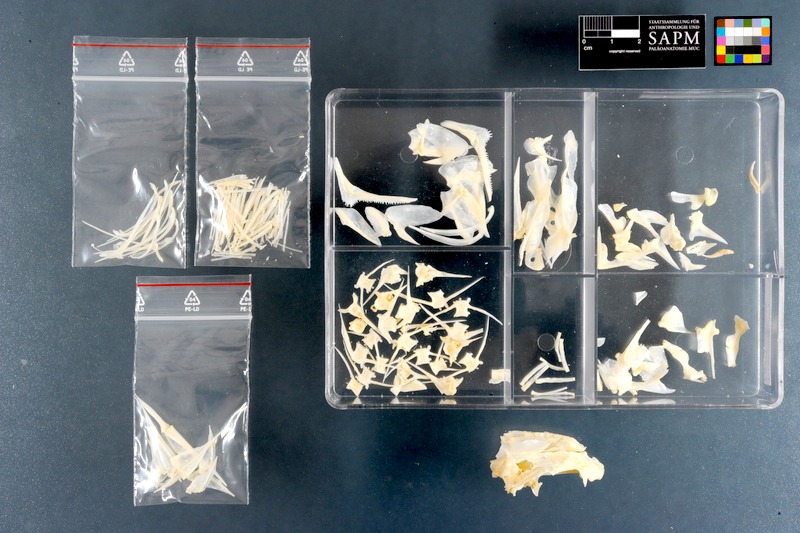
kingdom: Animalia
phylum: Chordata
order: Perciformes
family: Lethrinidae
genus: Lethrinus
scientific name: Lethrinus laticaudis
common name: Grass emperor
